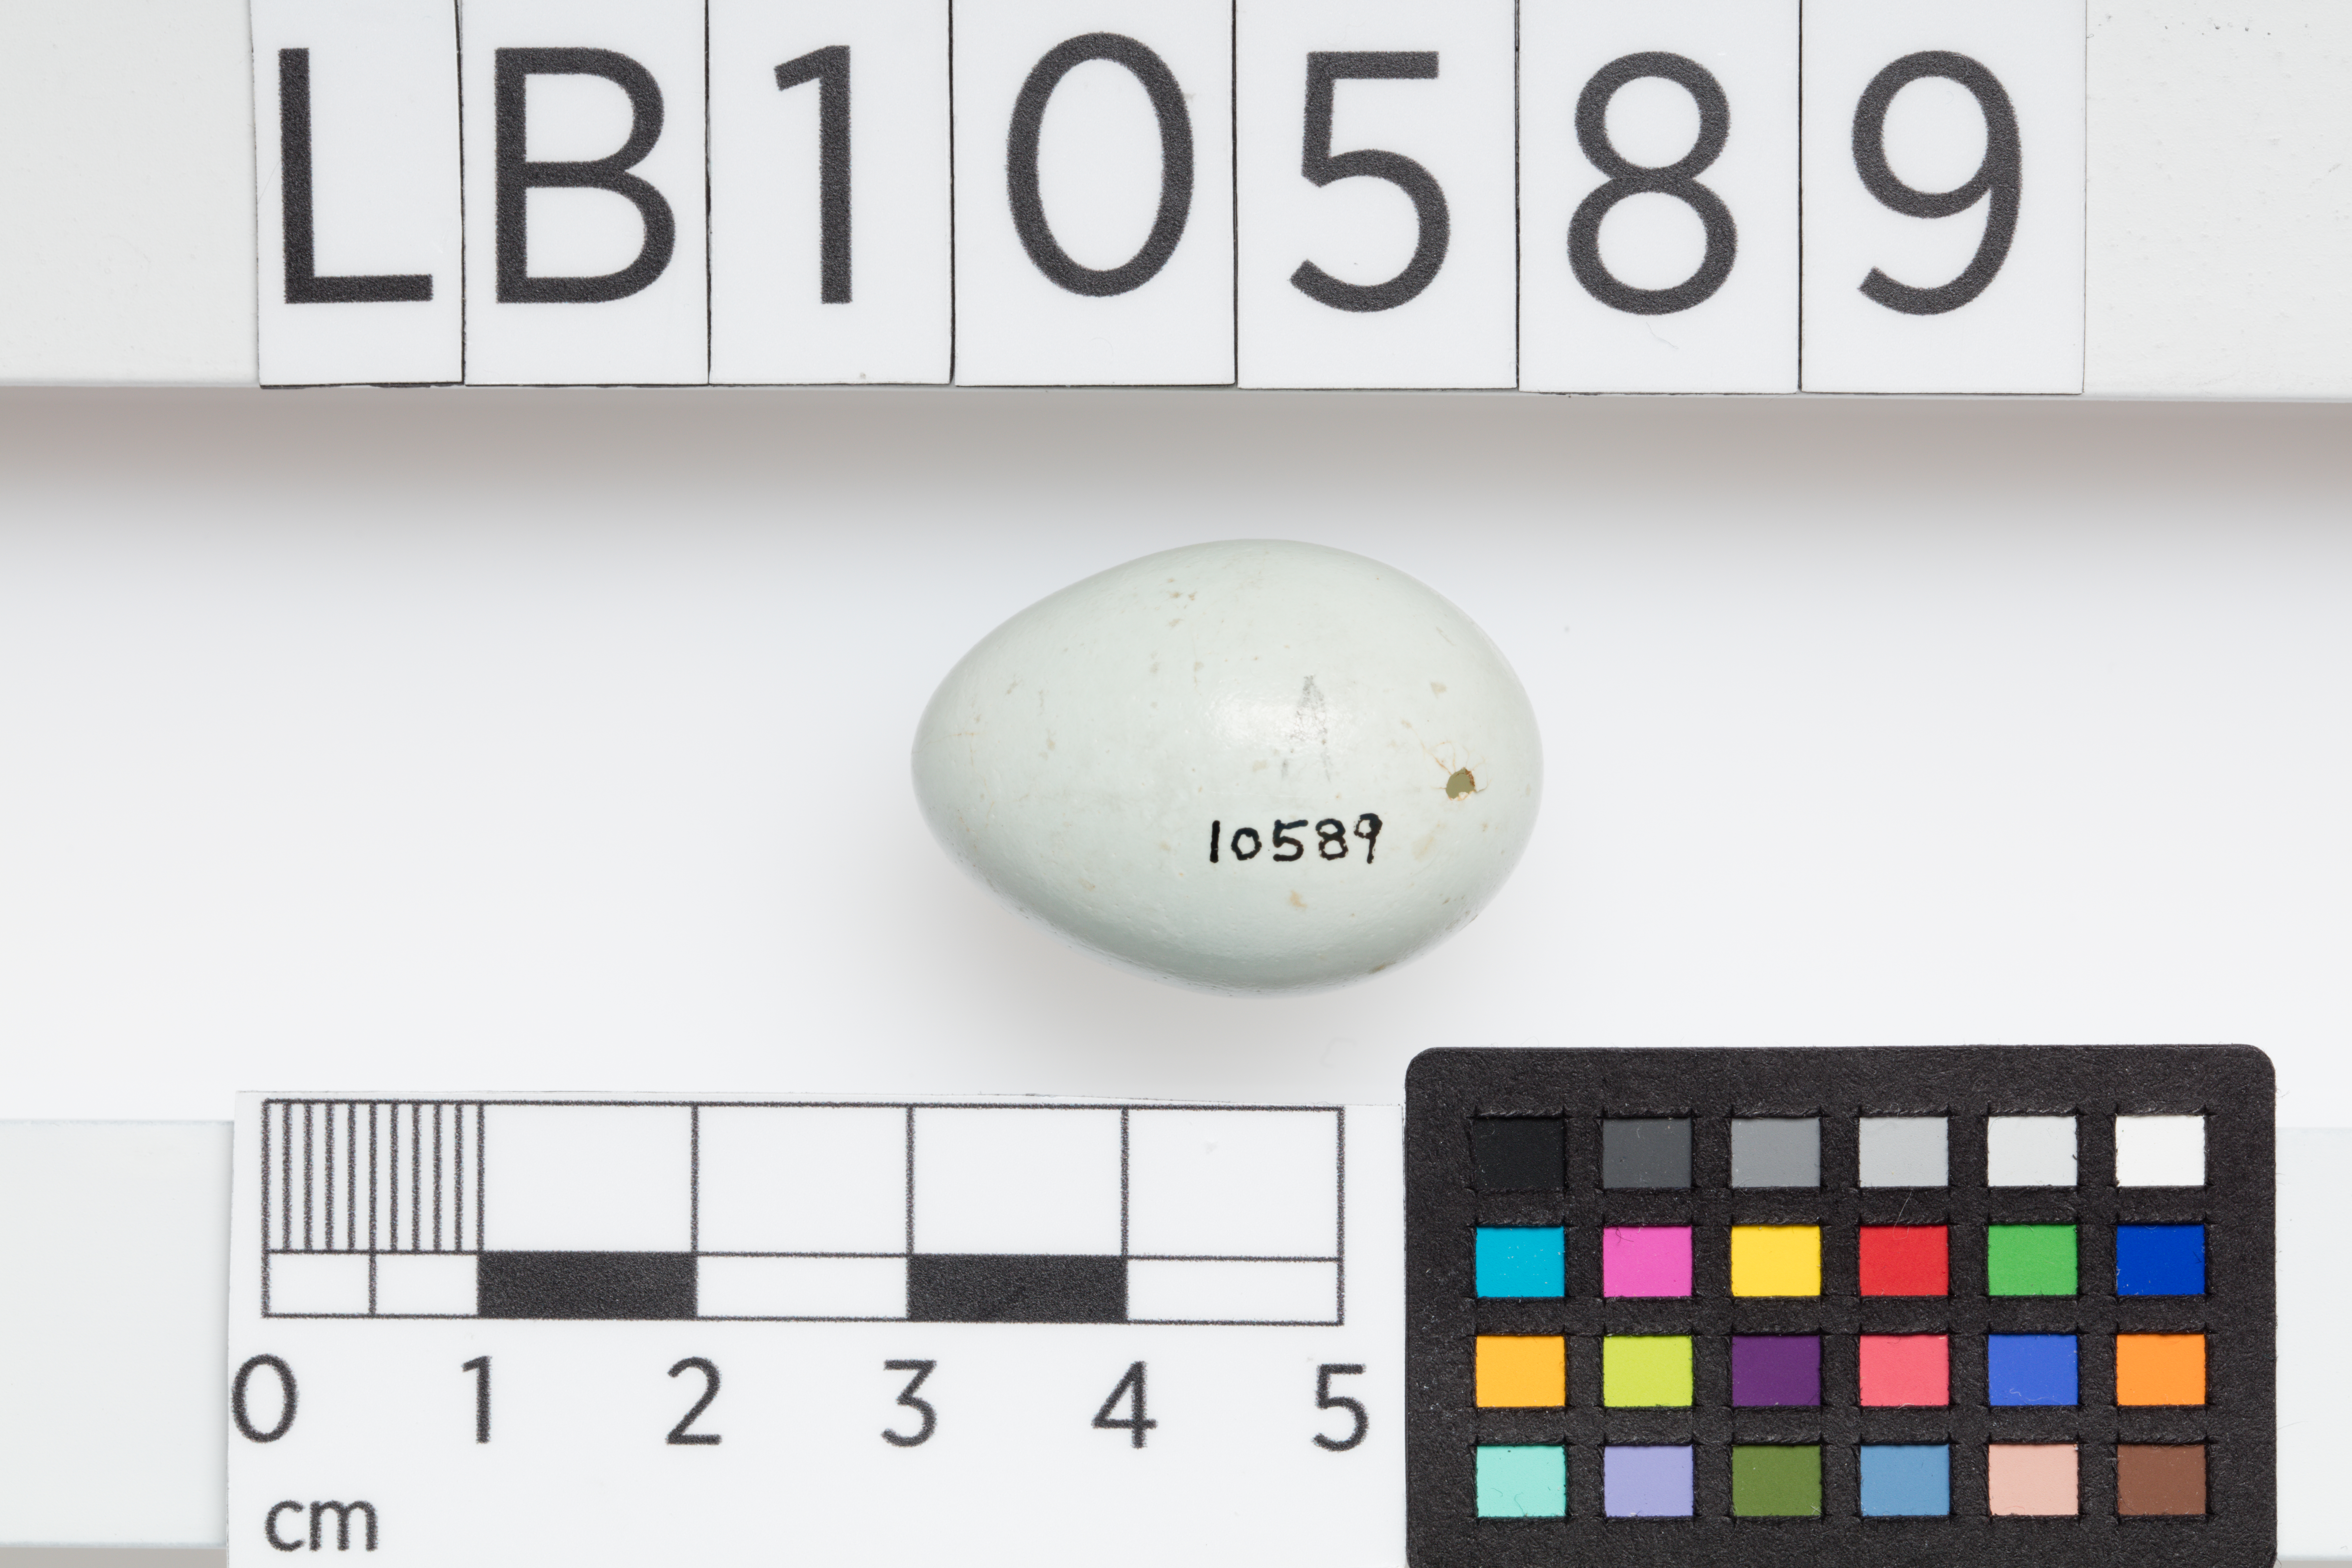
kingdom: Animalia
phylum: Chordata
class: Aves
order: Passeriformes
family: Sturnidae
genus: Sturnus
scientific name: Sturnus vulgaris
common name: Common starling
